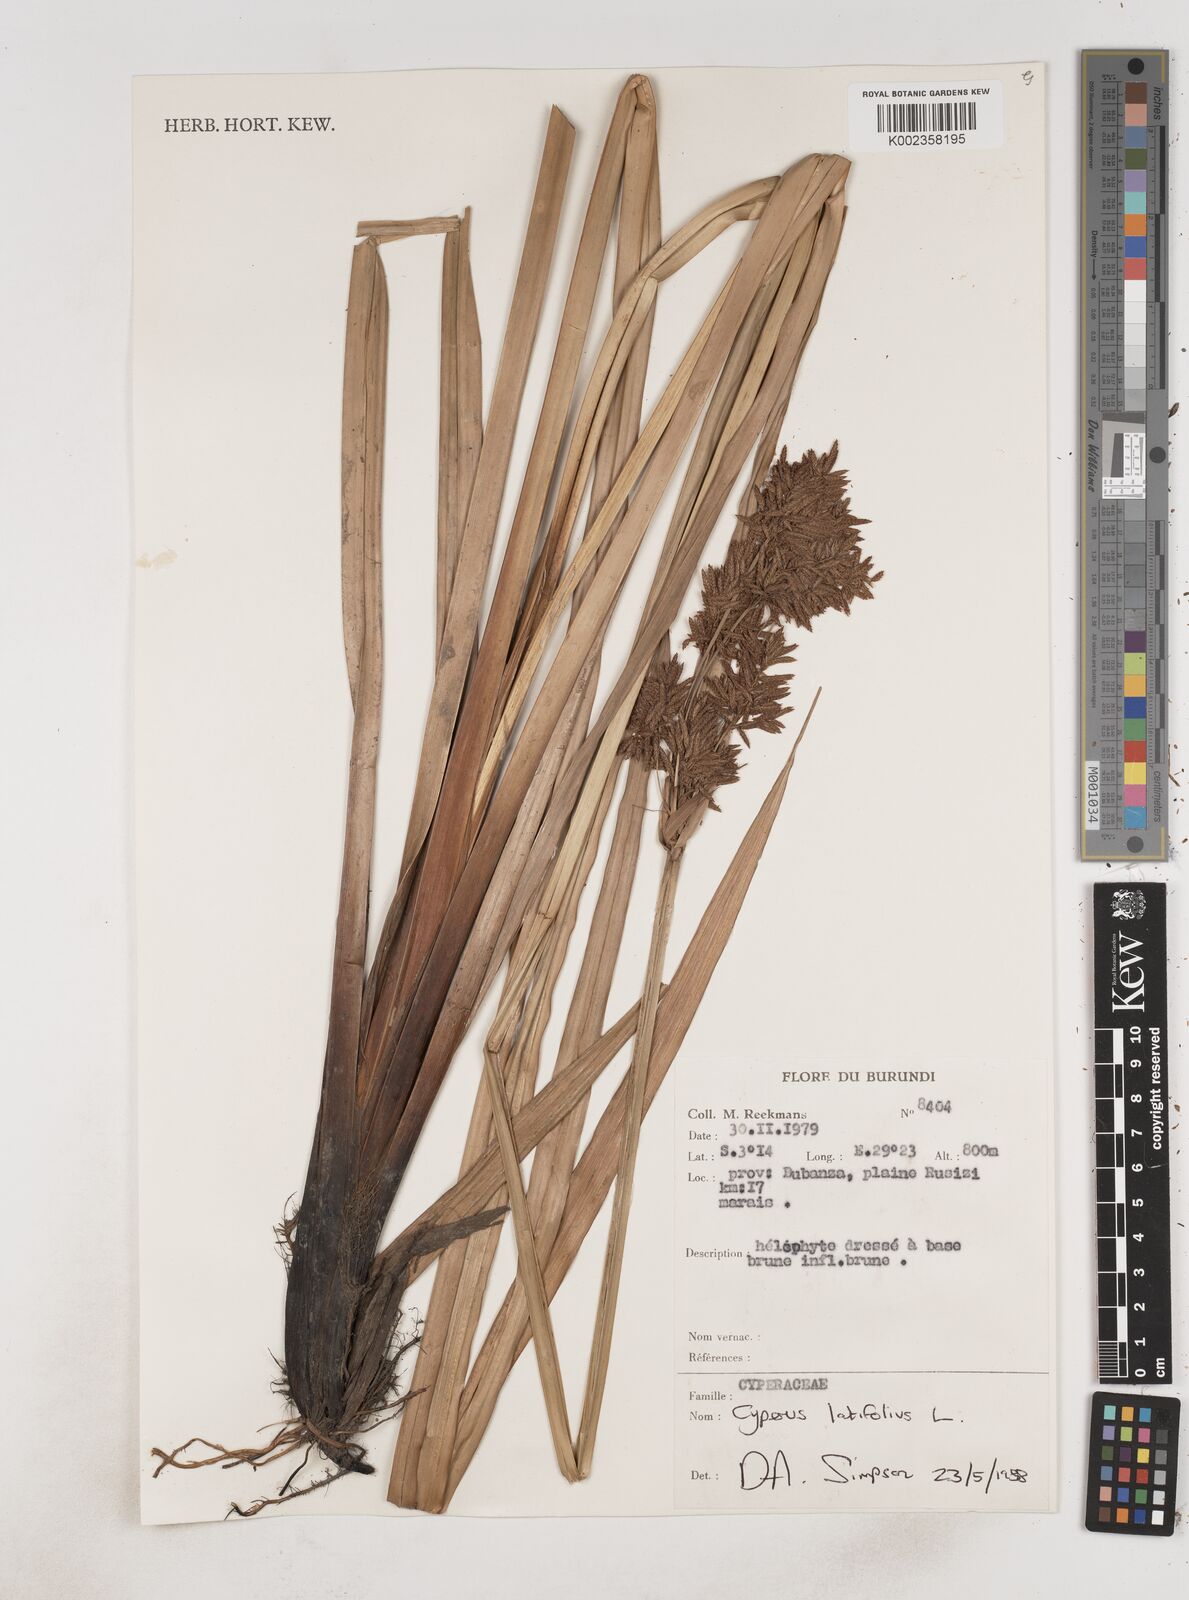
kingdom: Plantae
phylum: Tracheophyta
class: Liliopsida
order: Poales
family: Cyperaceae
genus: Cyperus
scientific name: Cyperus latifolius
